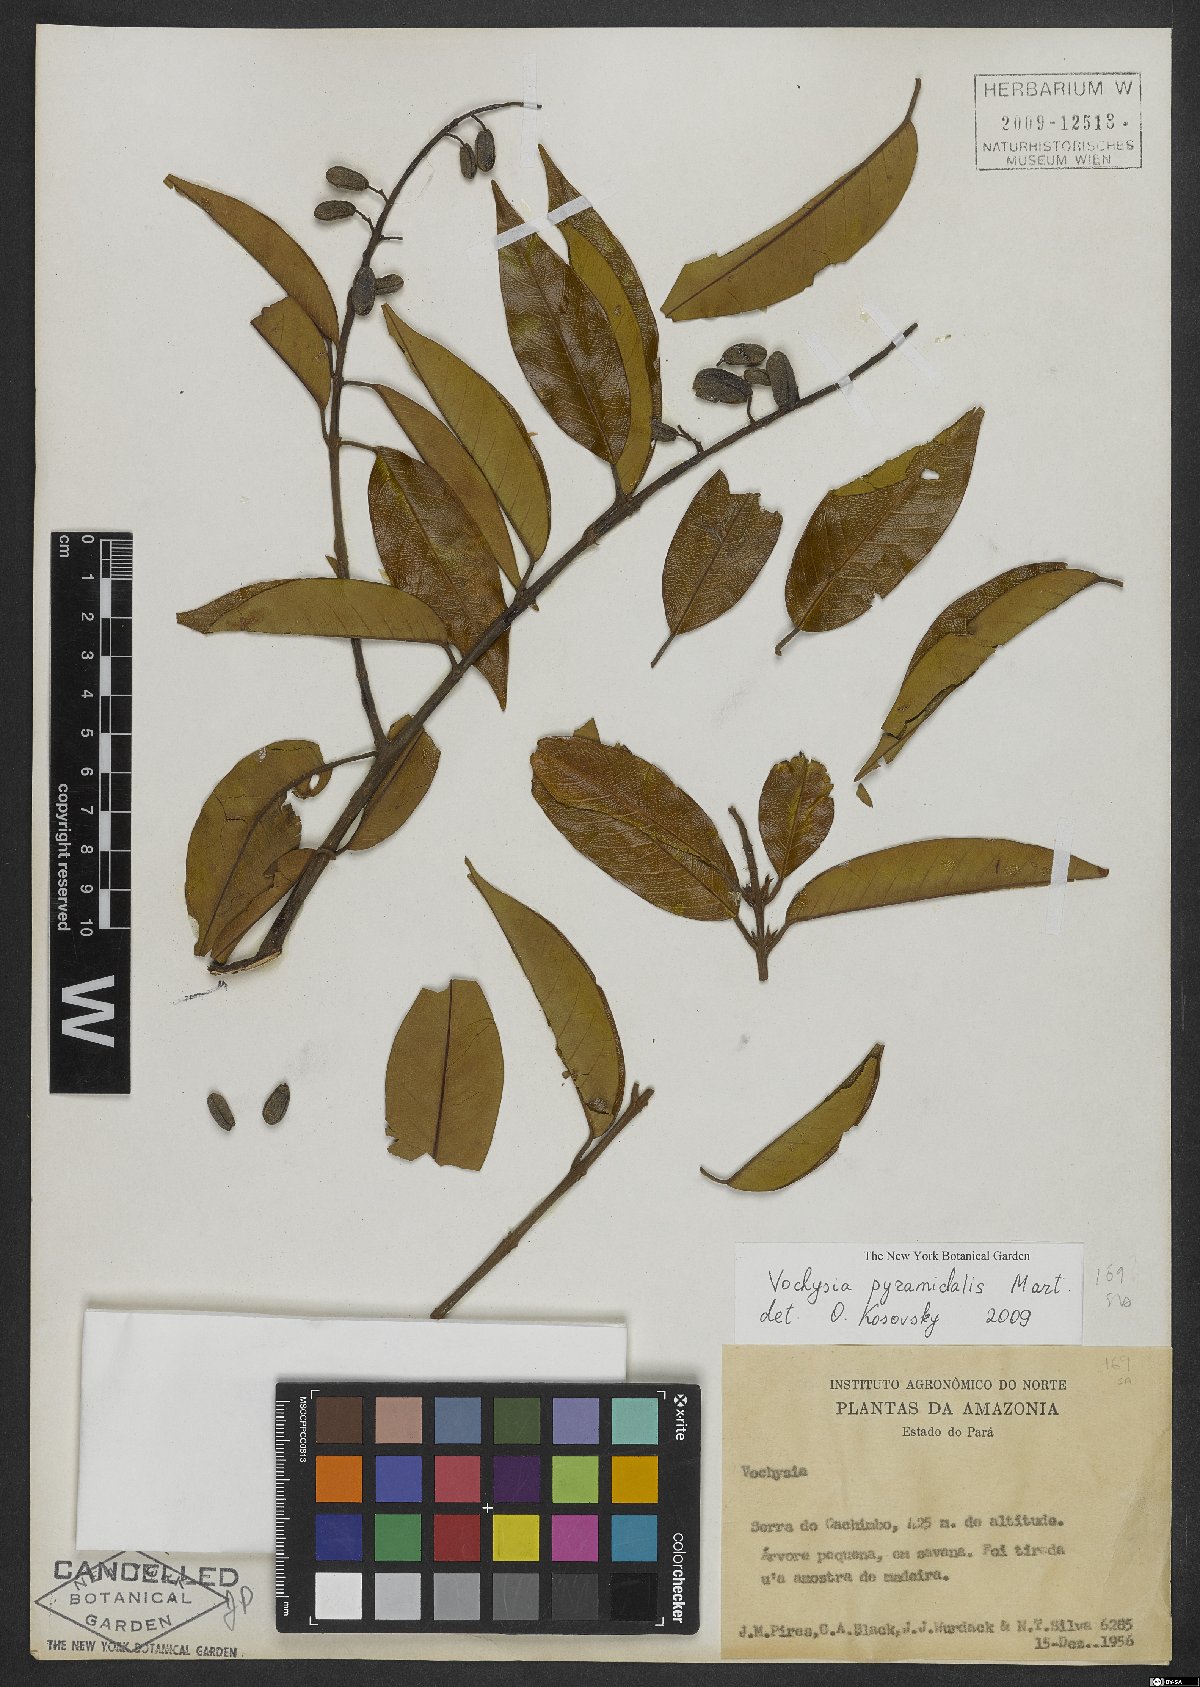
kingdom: Plantae
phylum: Tracheophyta
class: Magnoliopsida
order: Myrtales
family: Vochysiaceae
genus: Vochysia
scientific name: Vochysia pyramidalis
